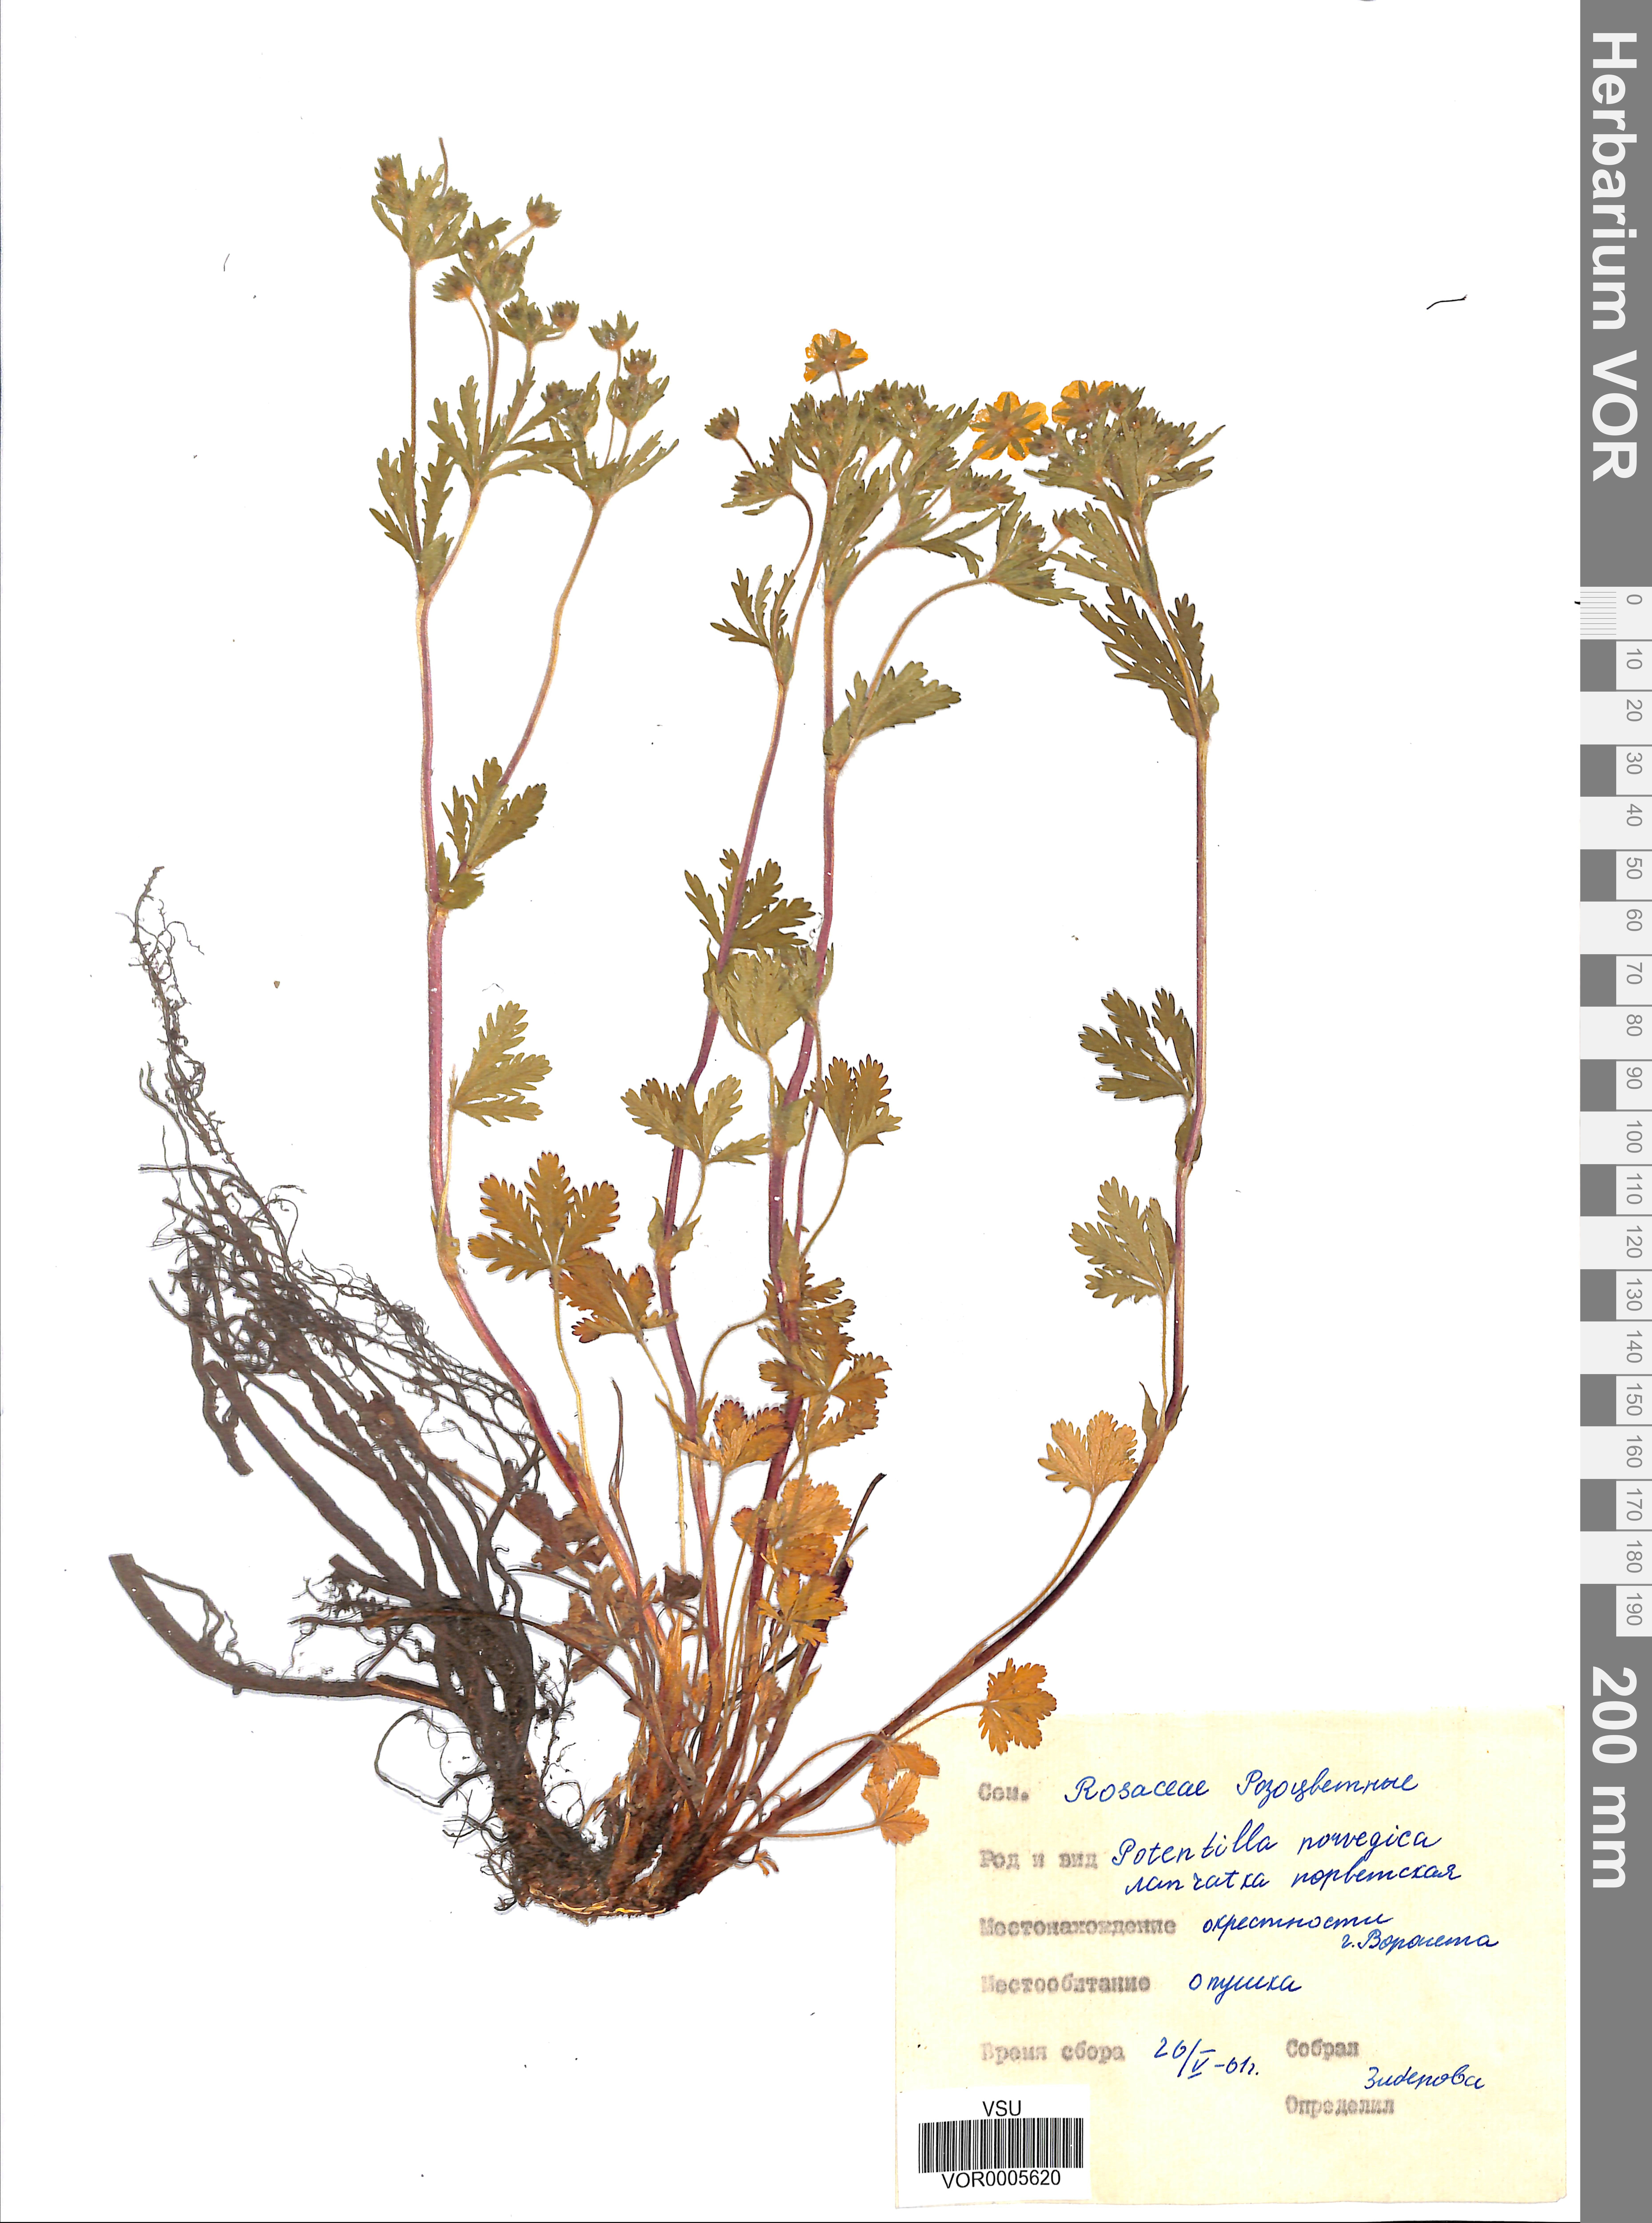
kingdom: Plantae
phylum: Tracheophyta
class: Magnoliopsida
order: Rosales
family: Rosaceae
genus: Potentilla
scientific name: Potentilla erecta
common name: Tormentil
